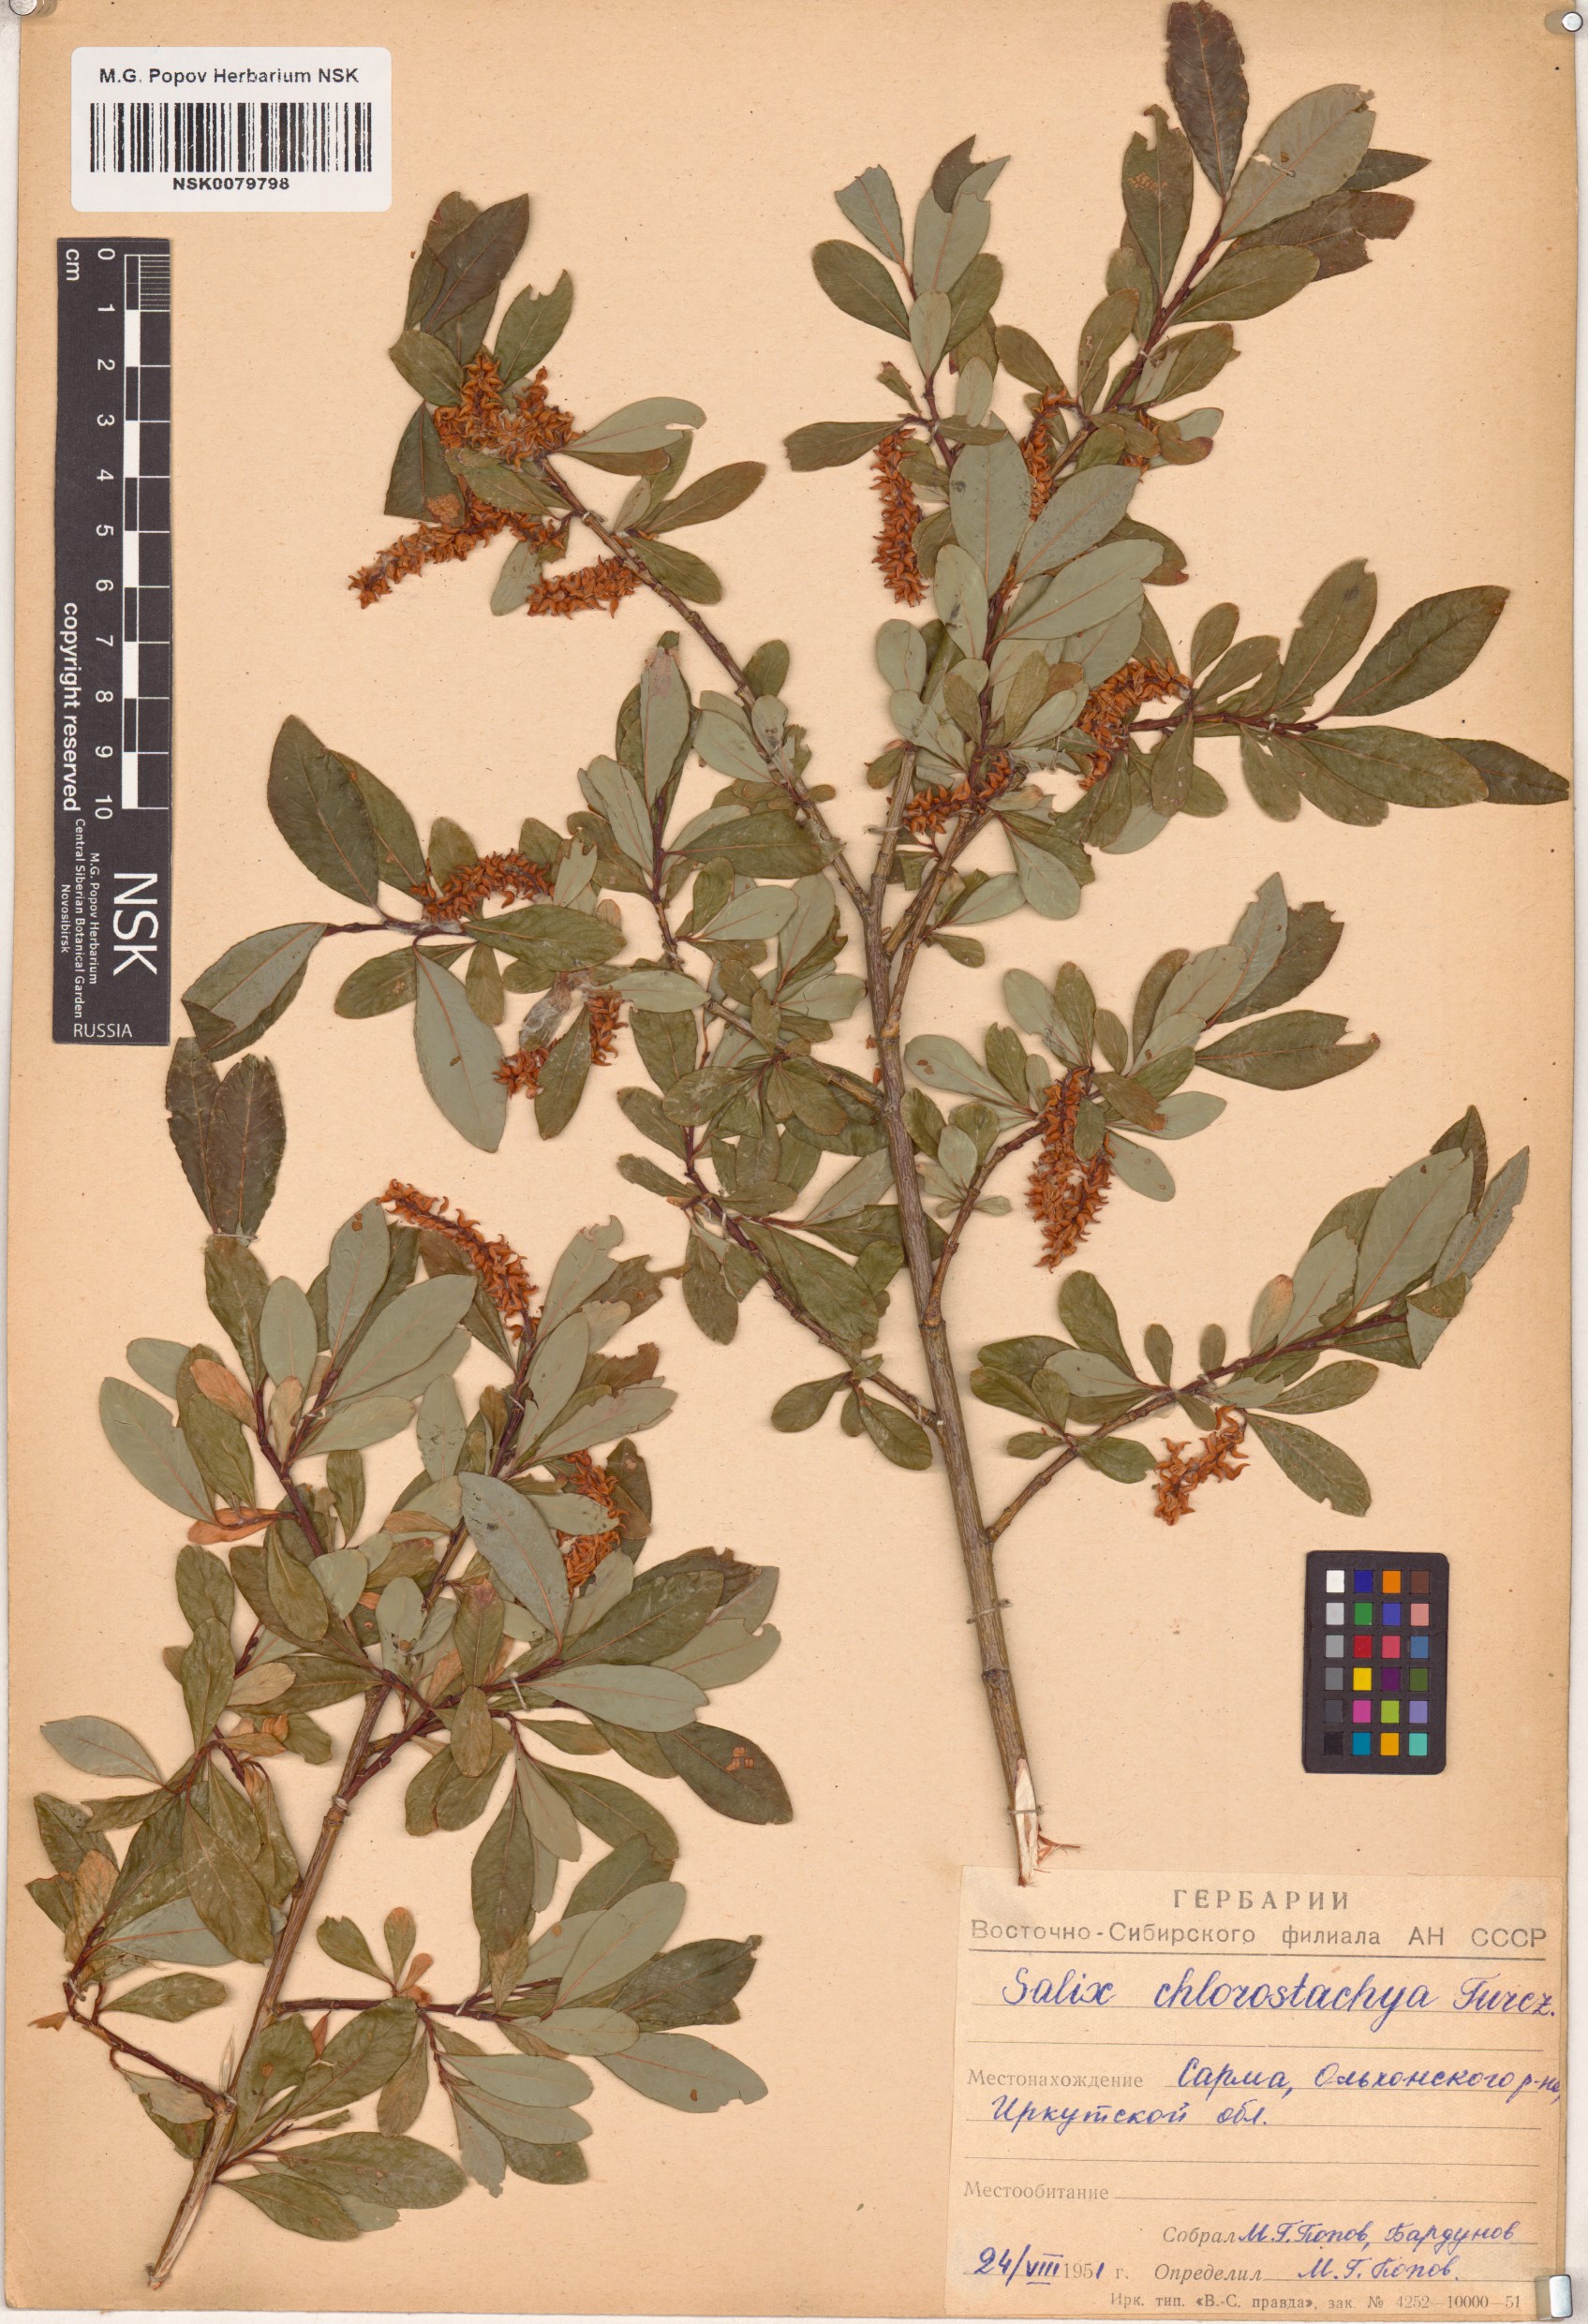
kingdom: Plantae
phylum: Tracheophyta
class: Magnoliopsida
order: Malpighiales
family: Salicaceae
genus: Salix
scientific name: Salix rhamnifolia
